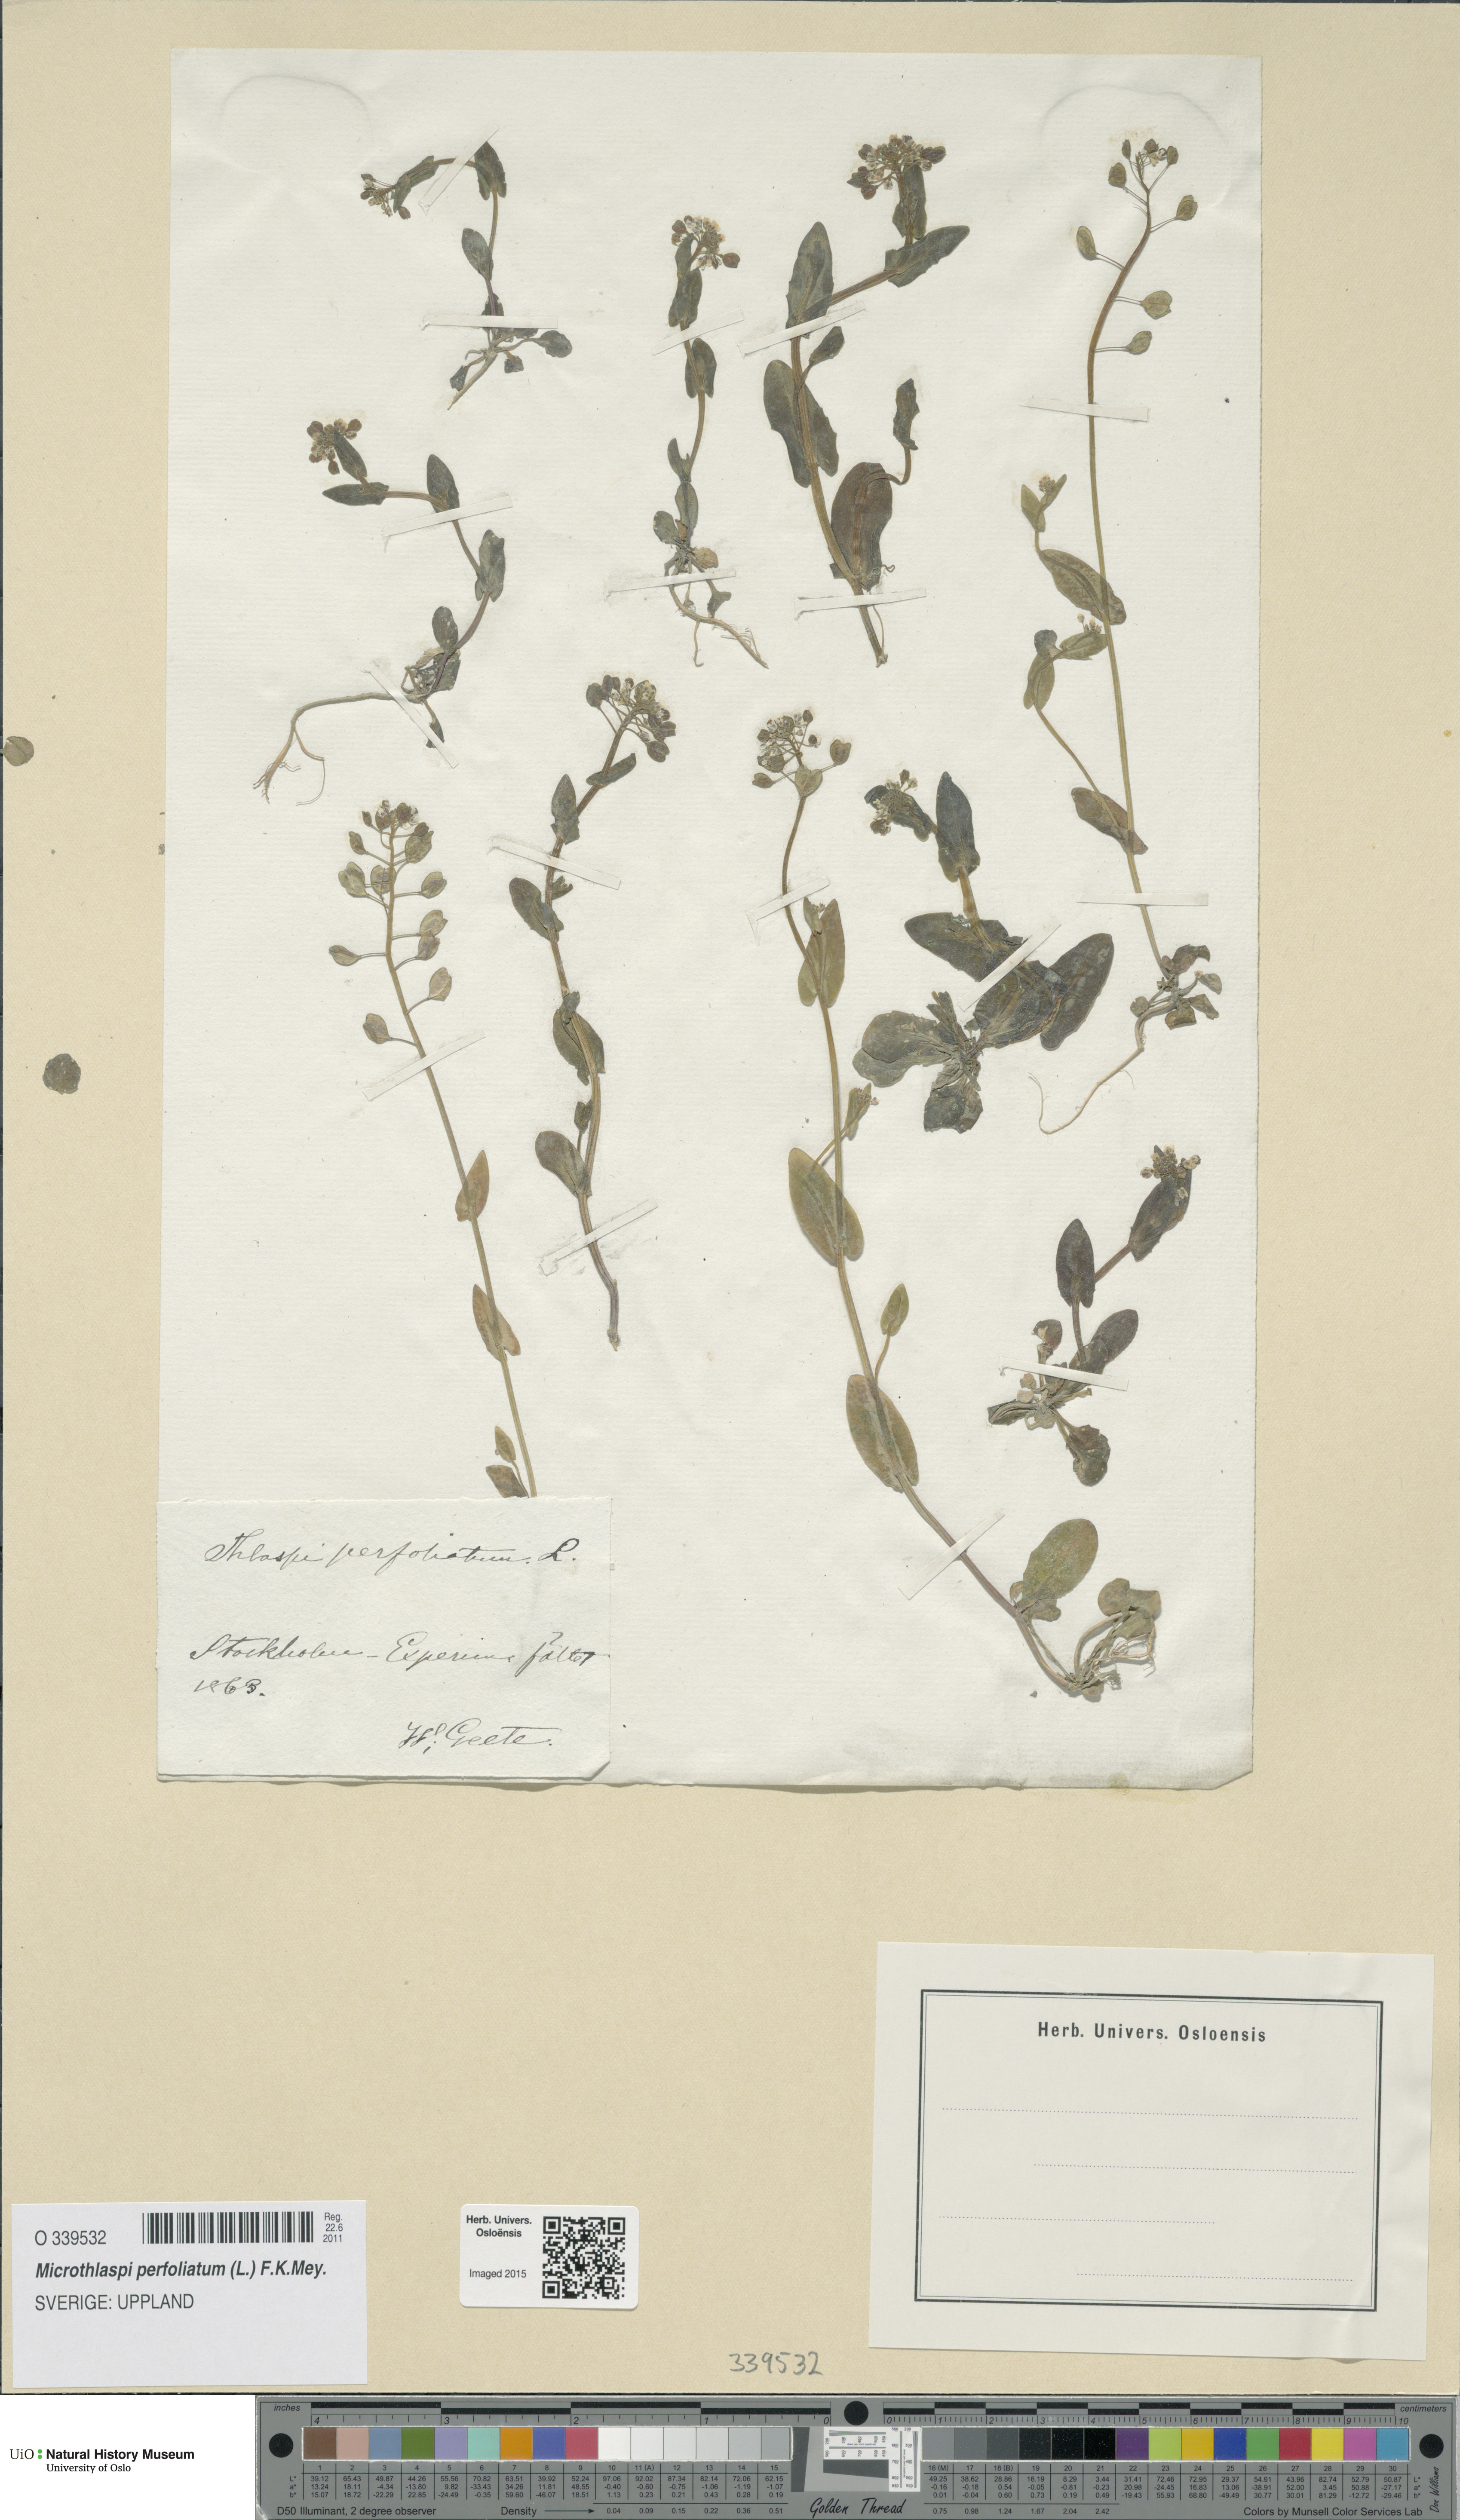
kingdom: Plantae
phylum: Tracheophyta
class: Magnoliopsida
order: Brassicales
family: Brassicaceae
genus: Noccaea
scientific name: Noccaea perfoliata
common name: Perfoliate pennycress
